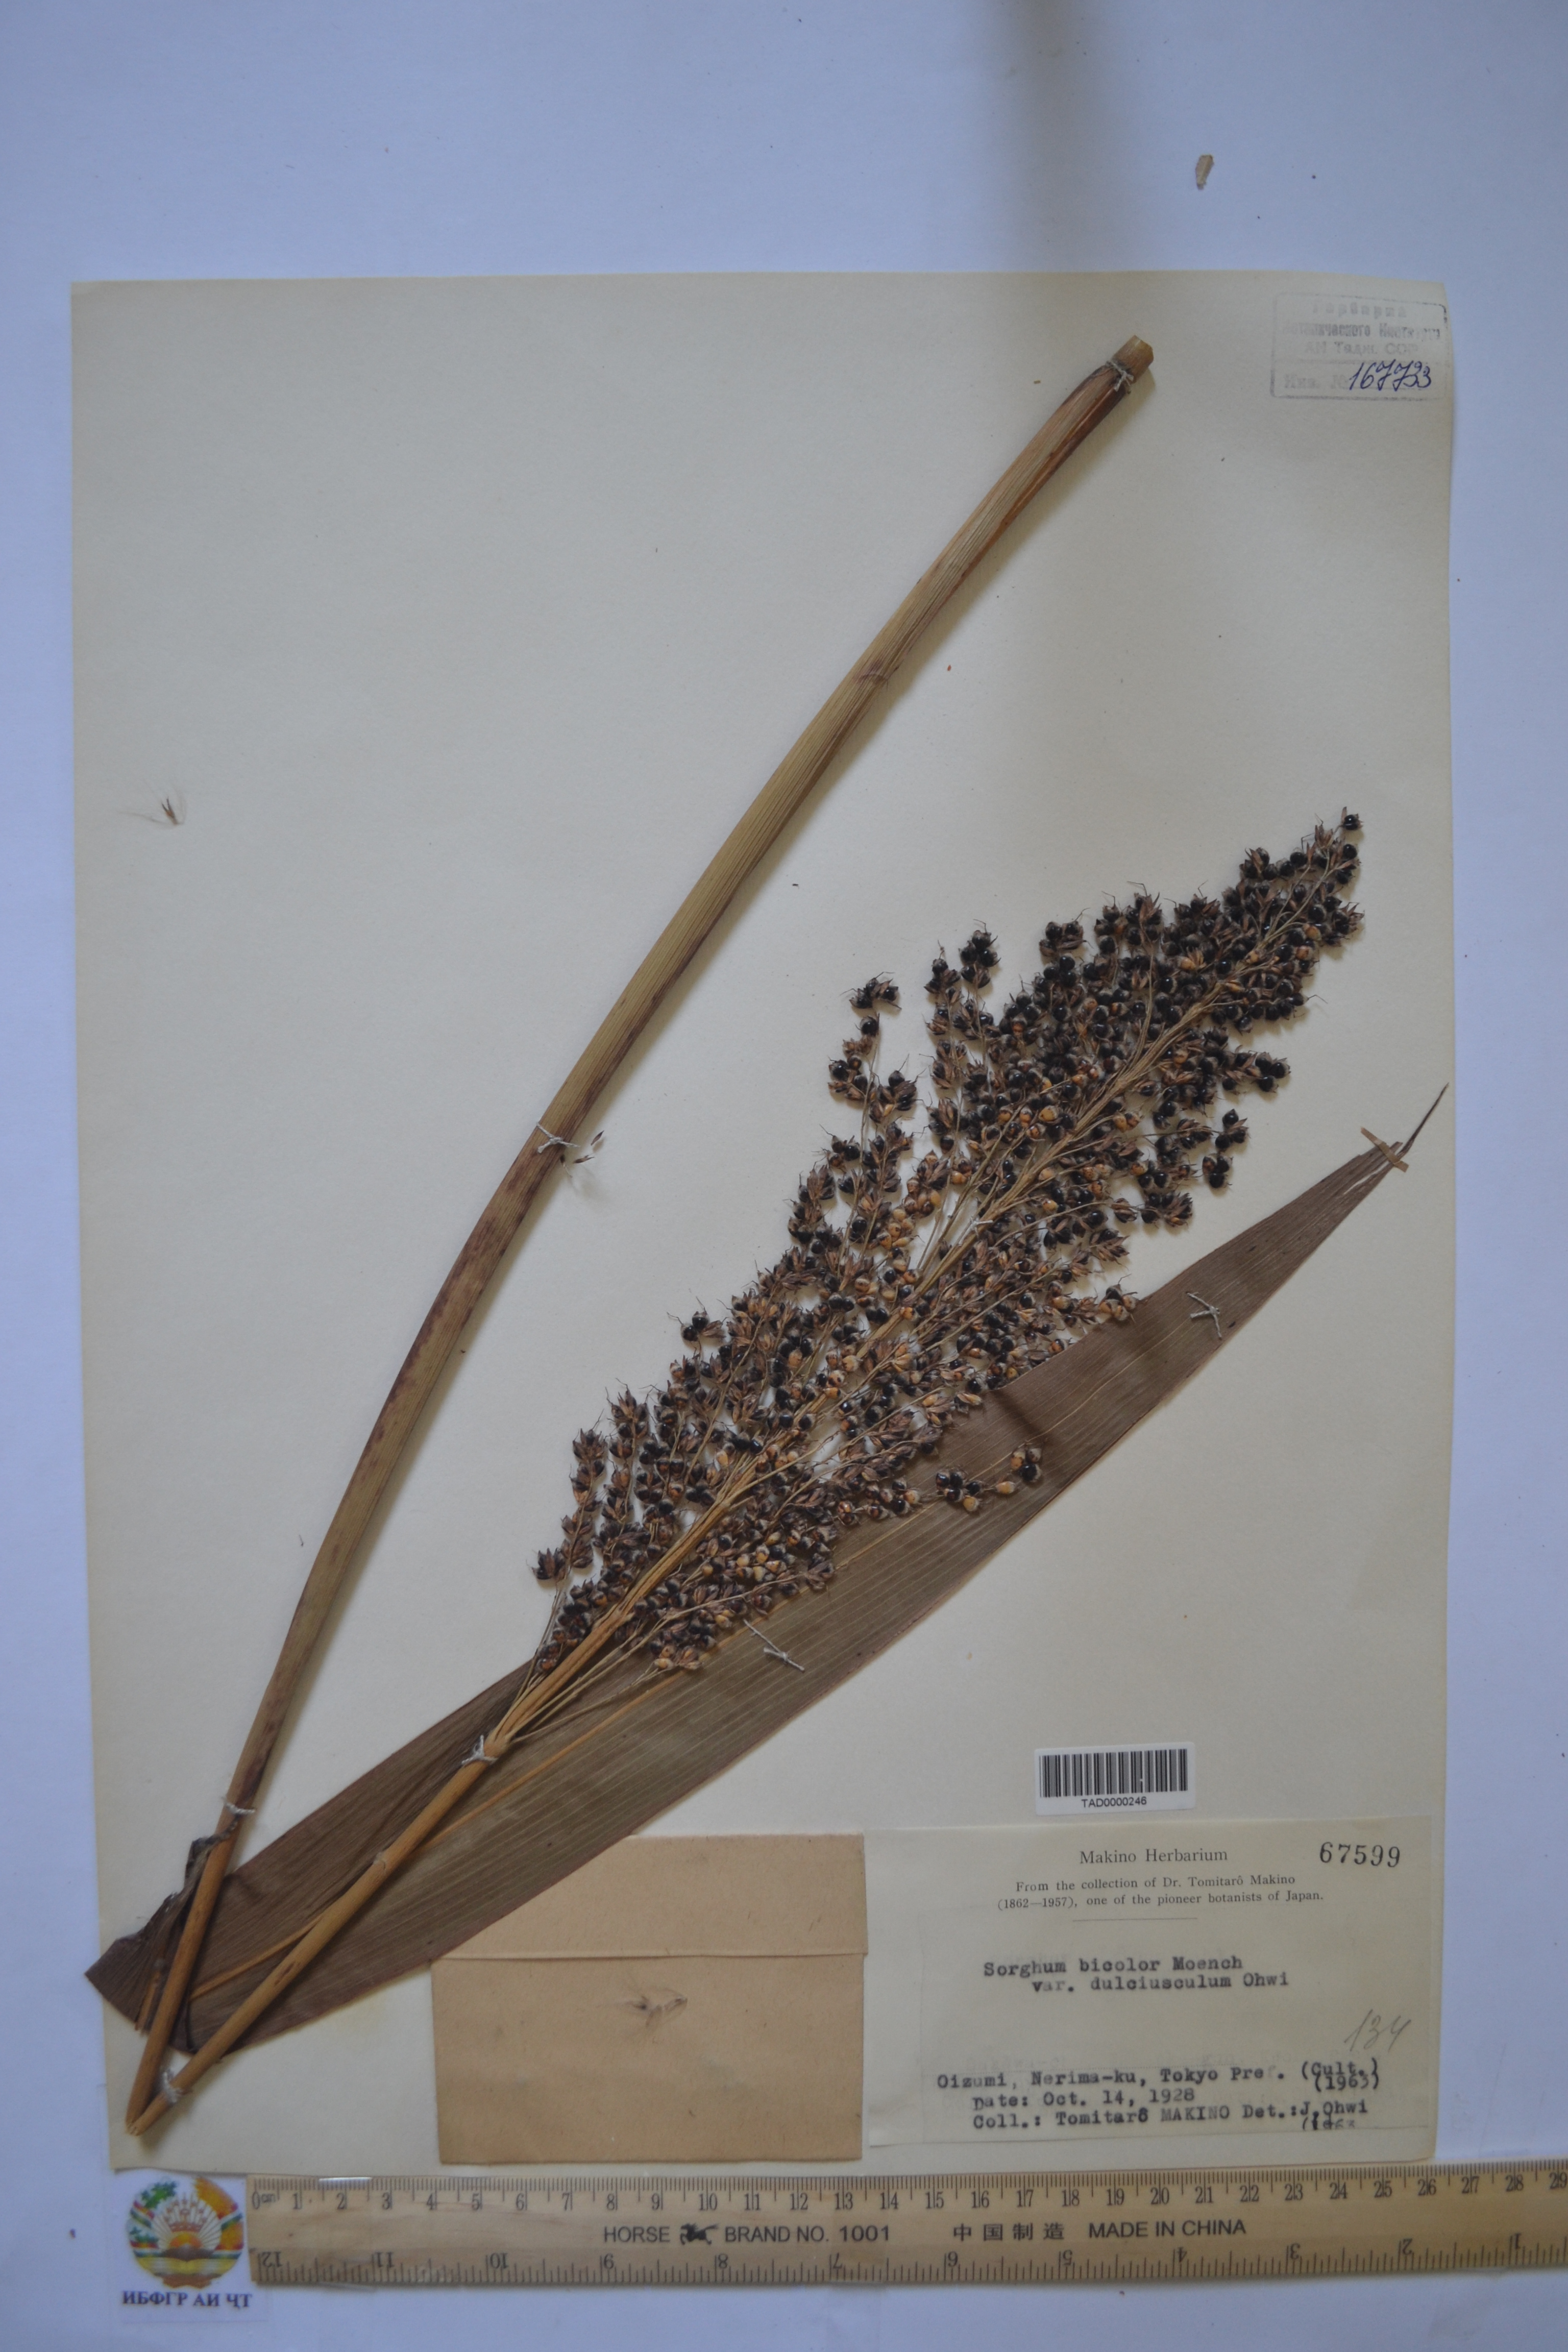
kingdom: Plantae
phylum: Tracheophyta
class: Liliopsida
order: Poales
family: Poaceae
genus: Sorghum
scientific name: Sorghum bicolor
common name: Sorghum
